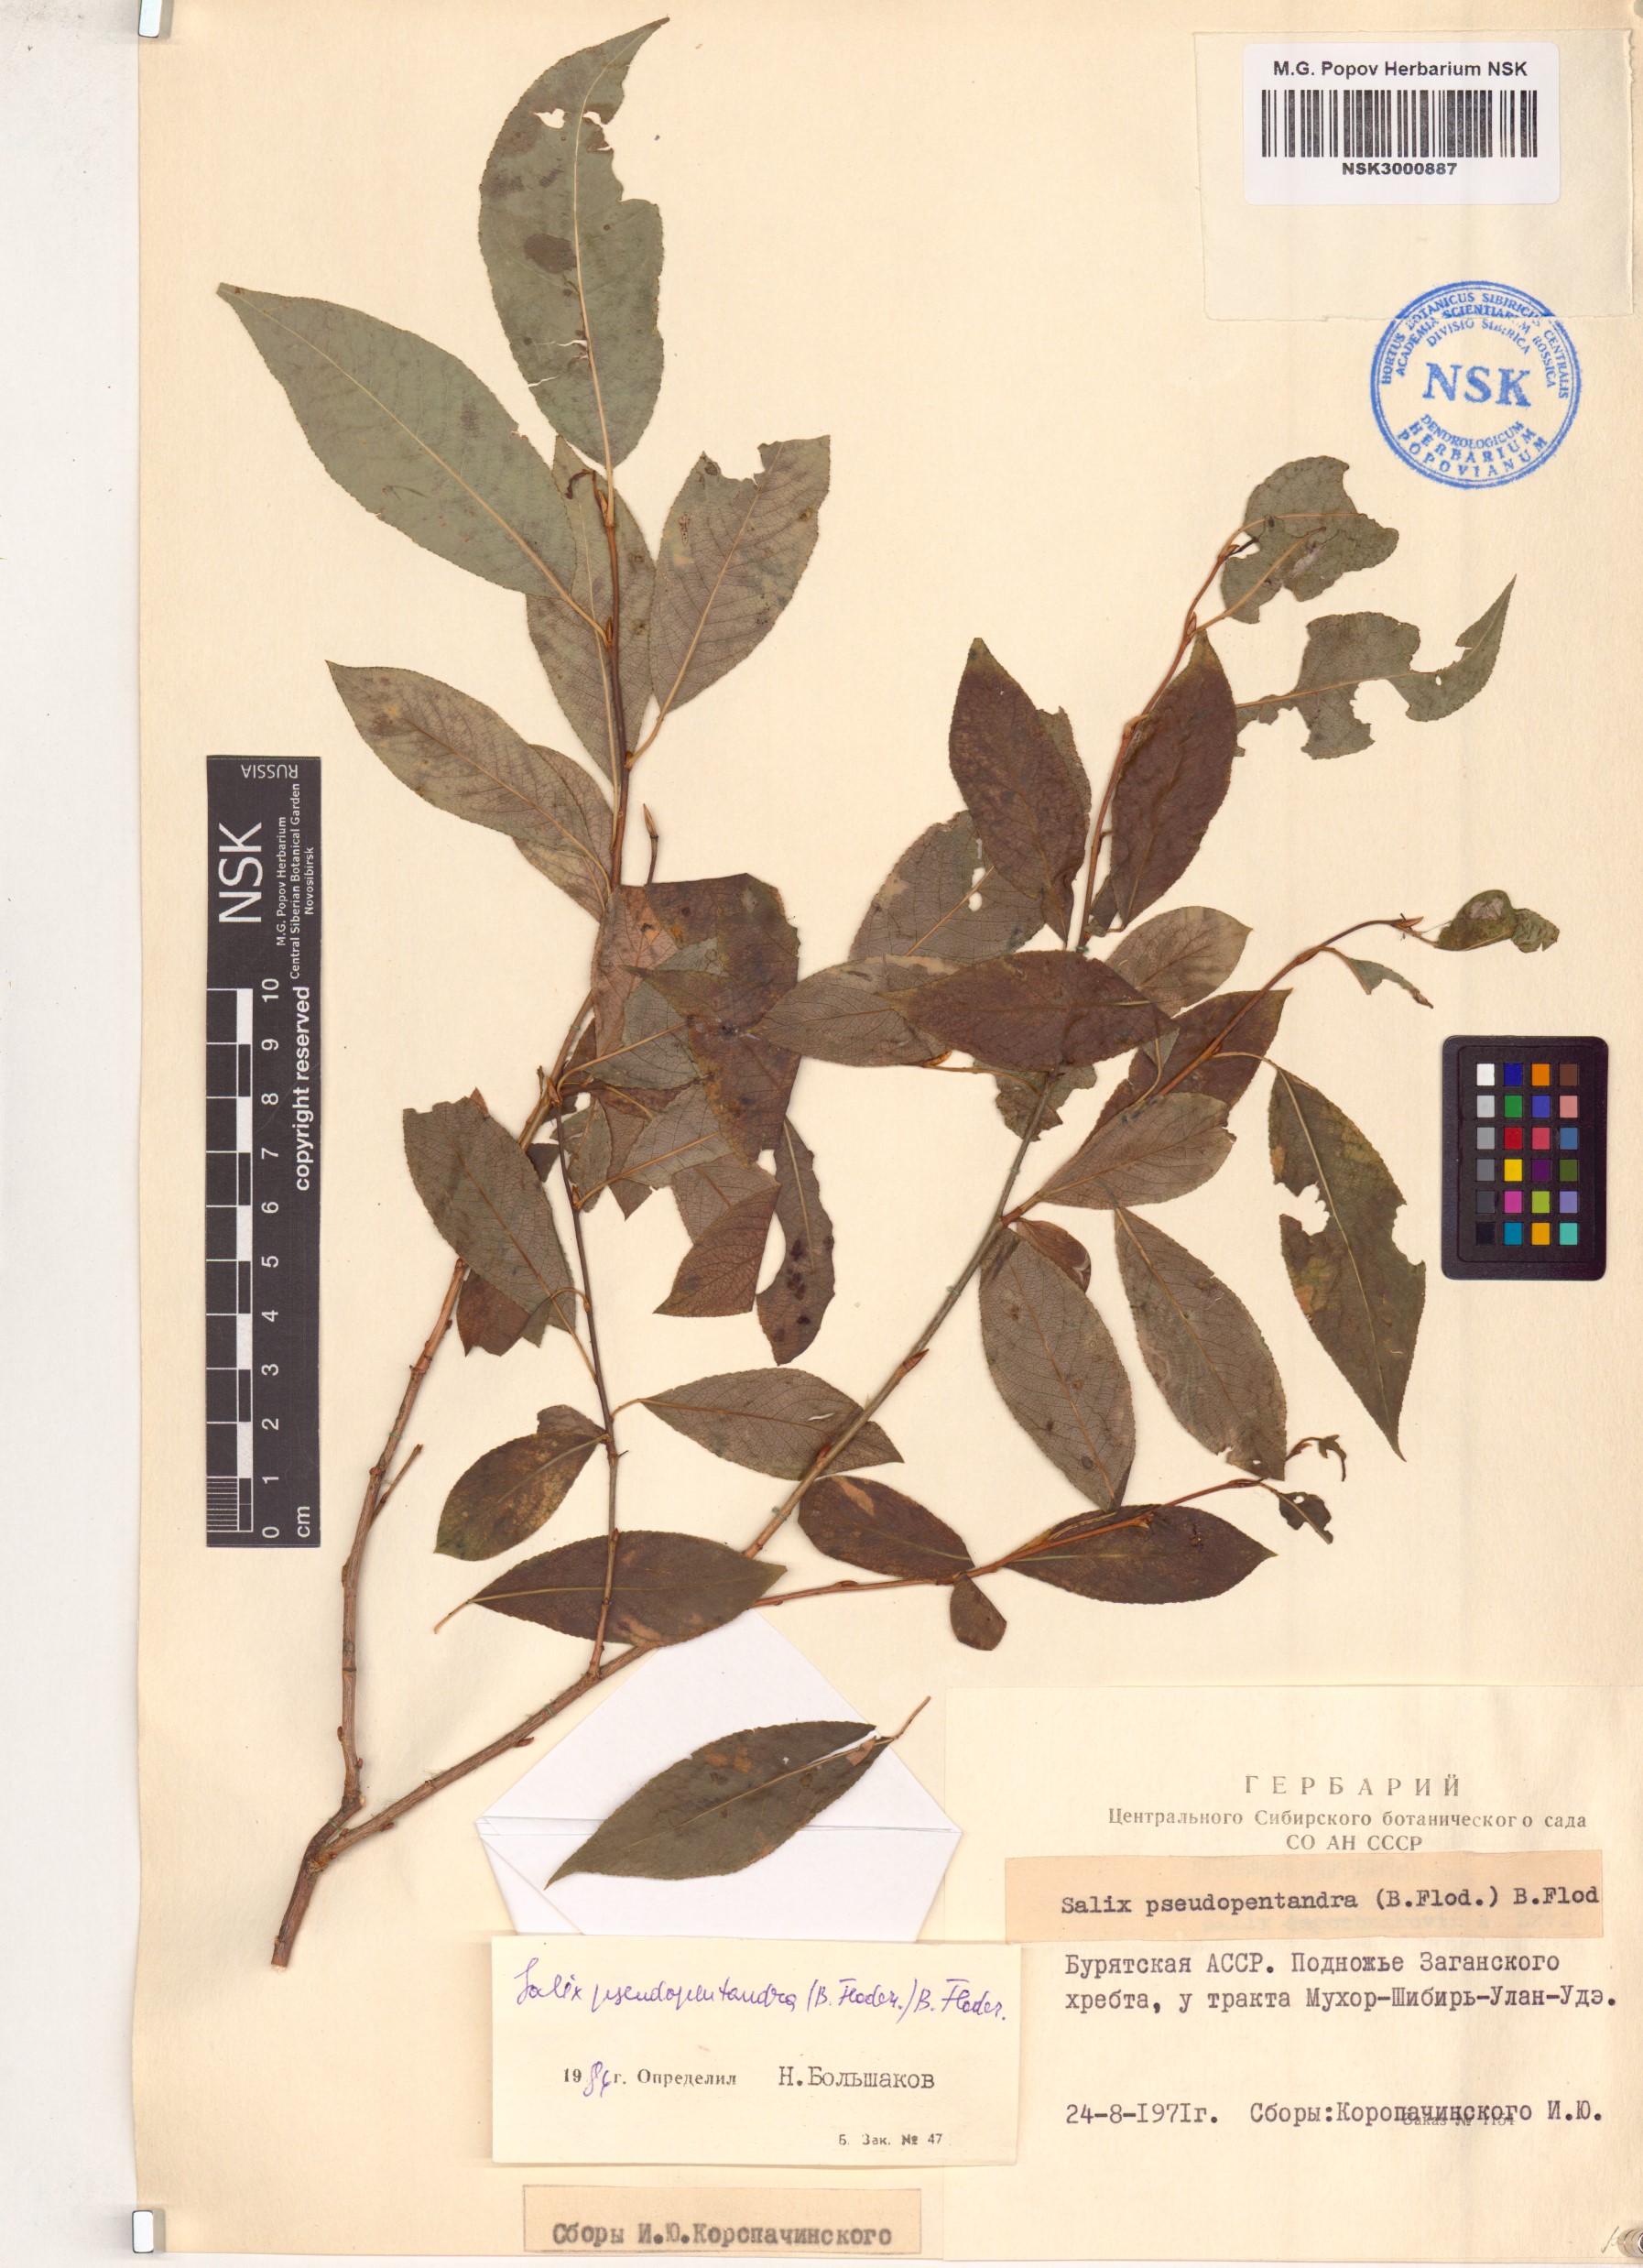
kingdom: Plantae
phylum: Tracheophyta
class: Magnoliopsida
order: Malpighiales
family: Salicaceae
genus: Salix
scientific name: Salix pseudopentandra
